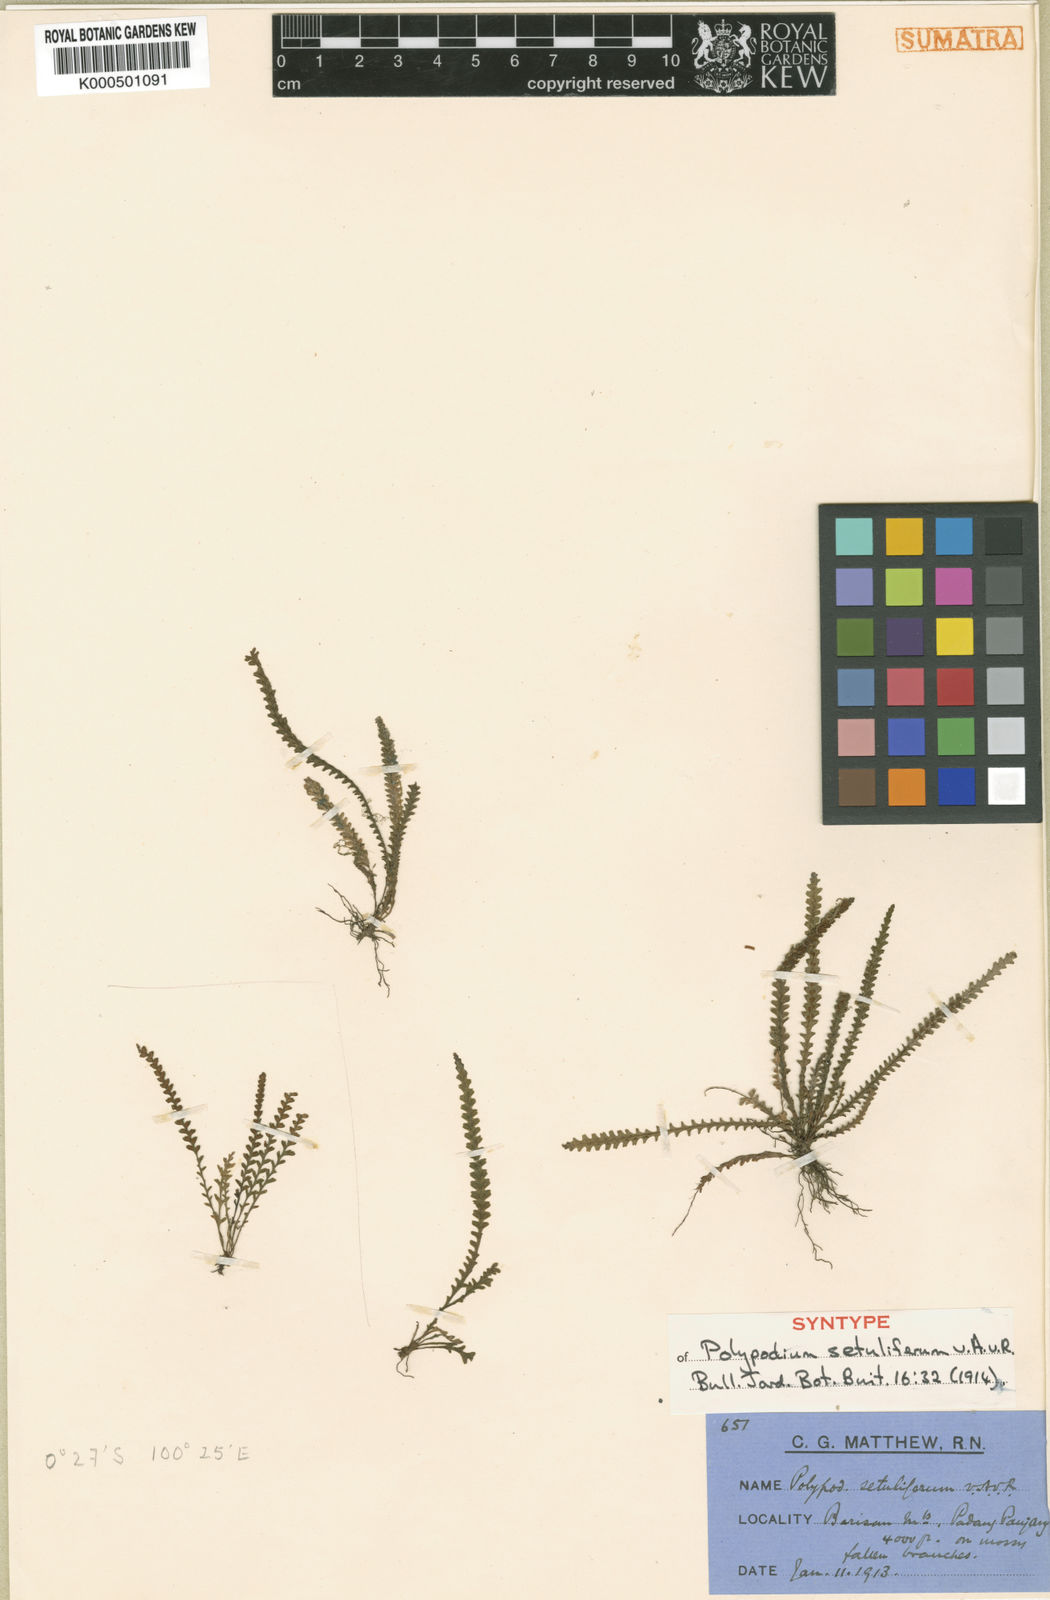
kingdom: Plantae
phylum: Tracheophyta
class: Polypodiopsida
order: Polypodiales
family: Polypodiaceae
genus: Chrysogrammitis
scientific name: Chrysogrammitis musgraviana
